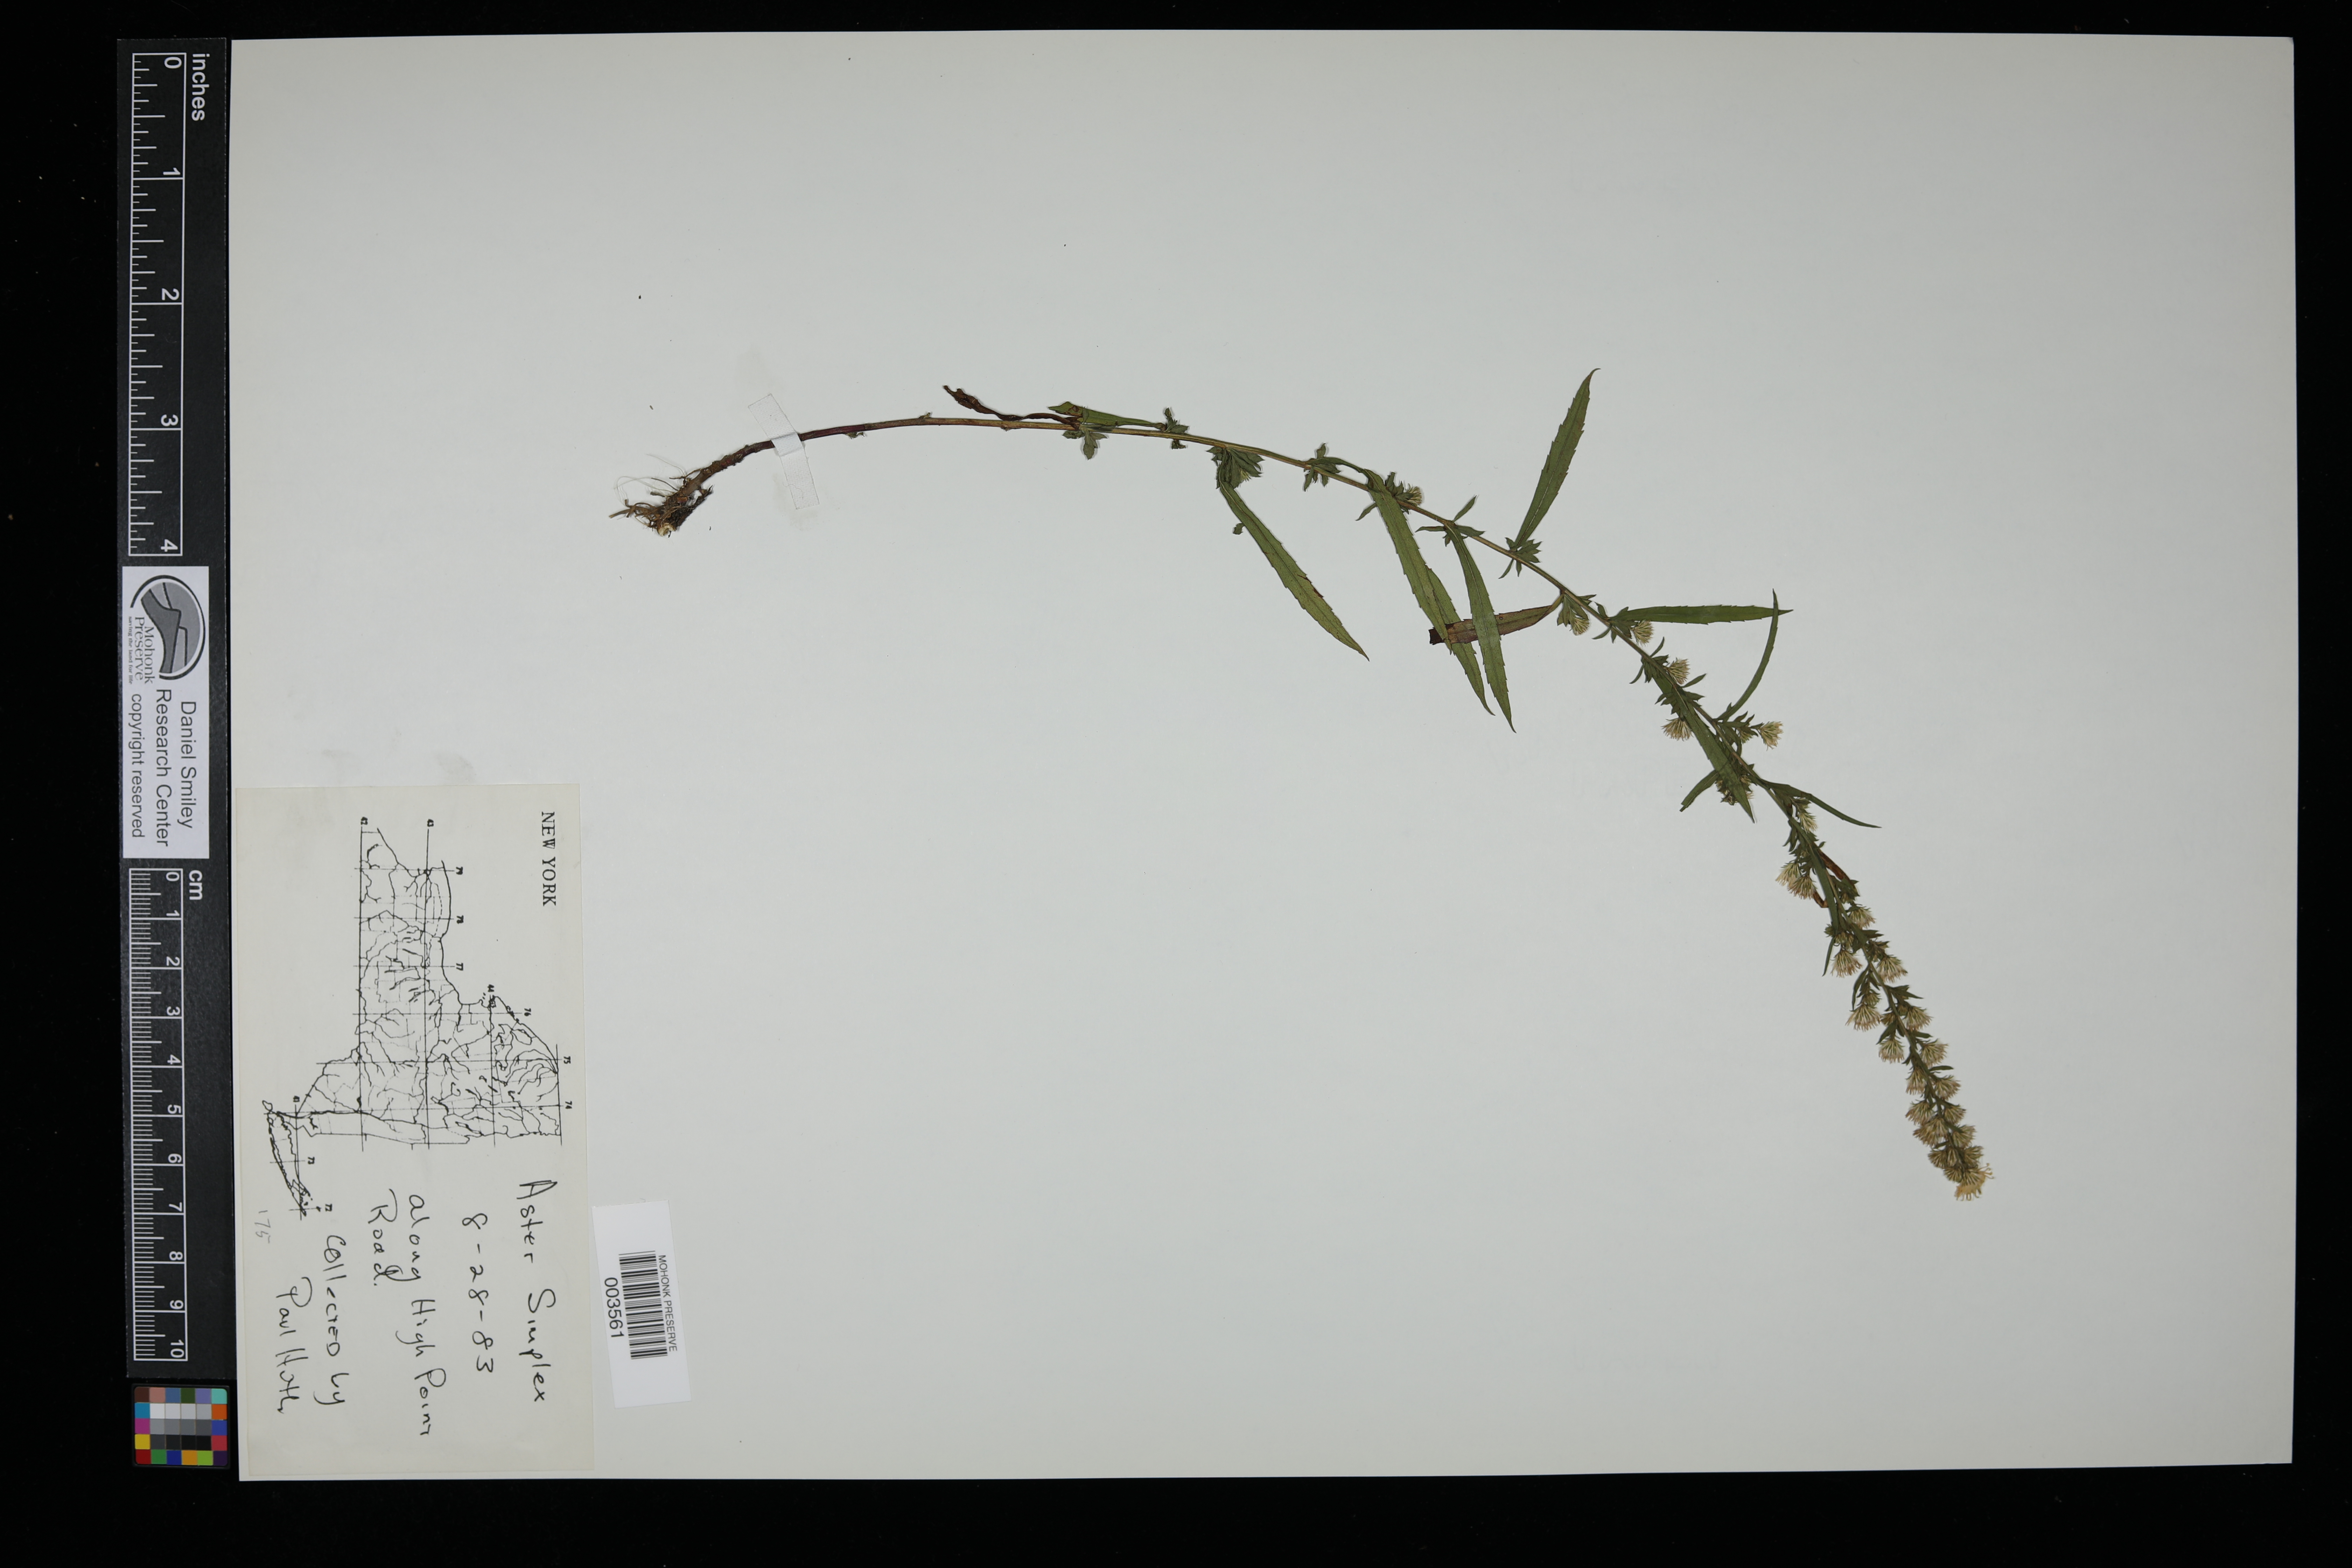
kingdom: Plantae
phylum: Tracheophyta
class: Magnoliopsida
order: Asterales
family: Asteraceae
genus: Symphyotrichum
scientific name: Symphyotrichum lanceolatum
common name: Panicled aster
